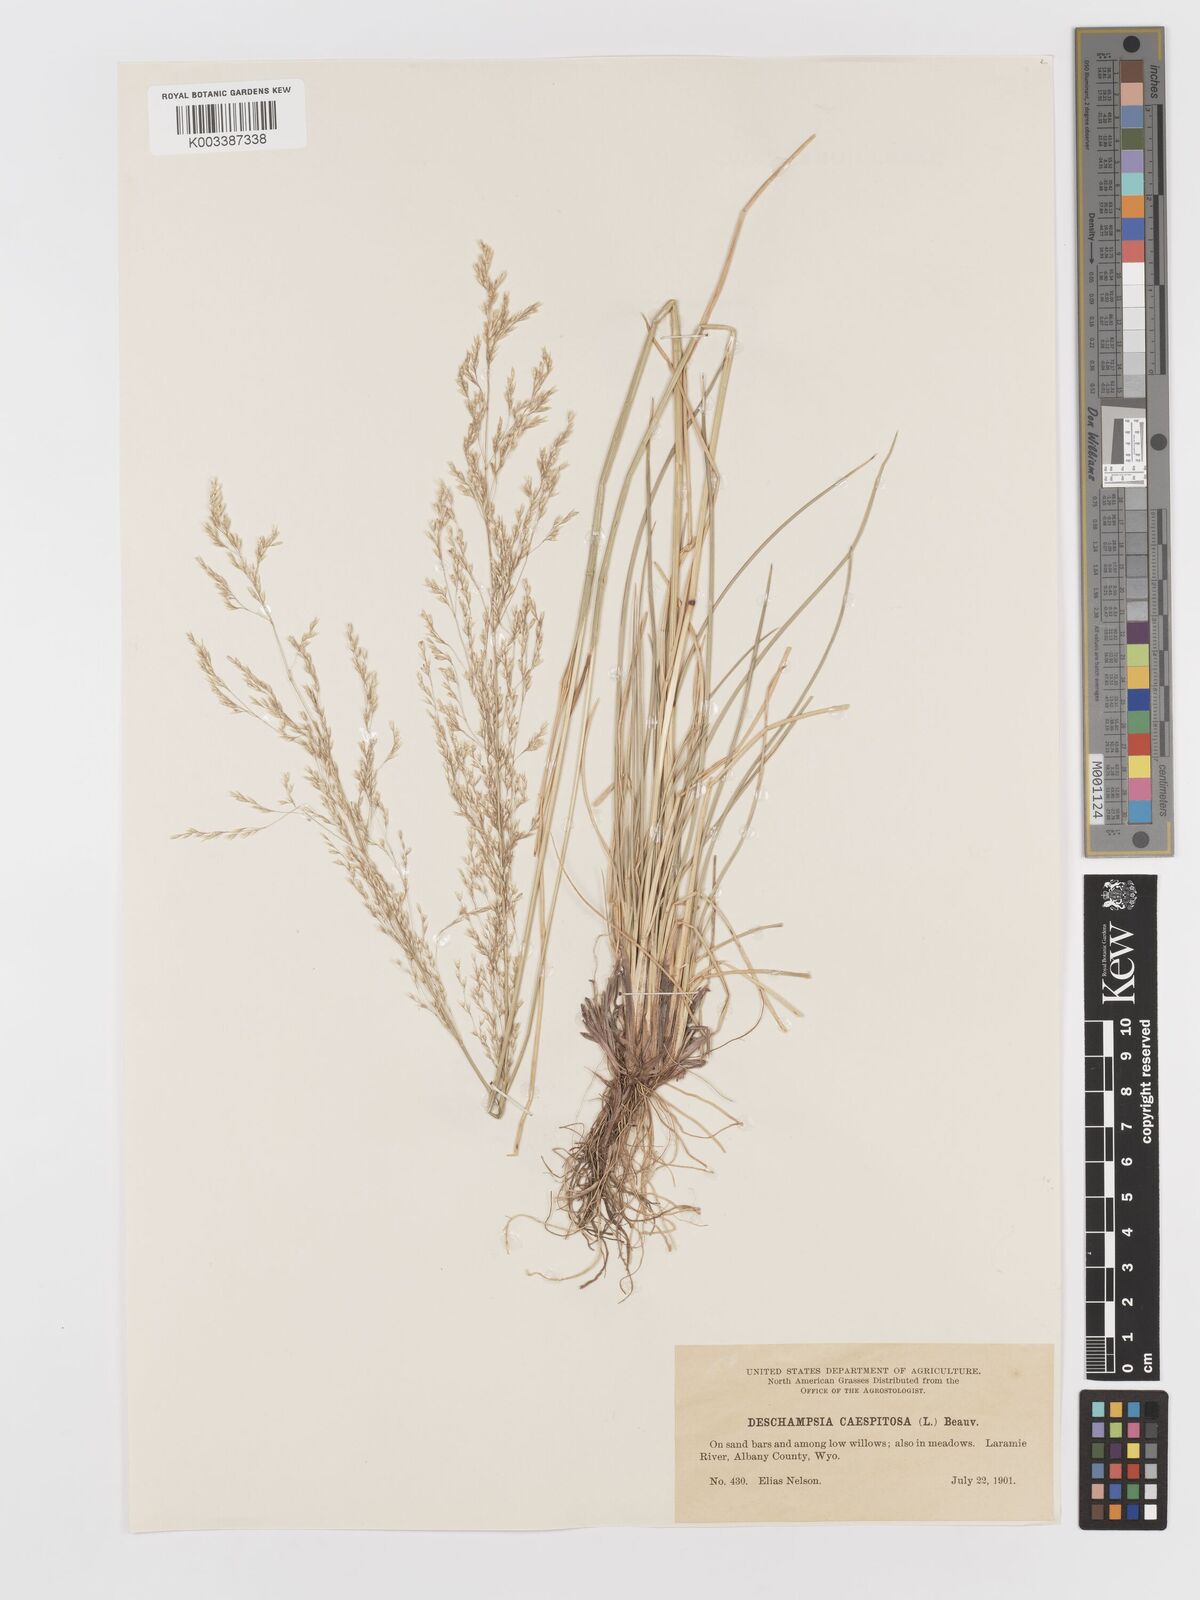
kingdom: Plantae
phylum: Tracheophyta
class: Liliopsida
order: Poales
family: Poaceae
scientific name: Poaceae
